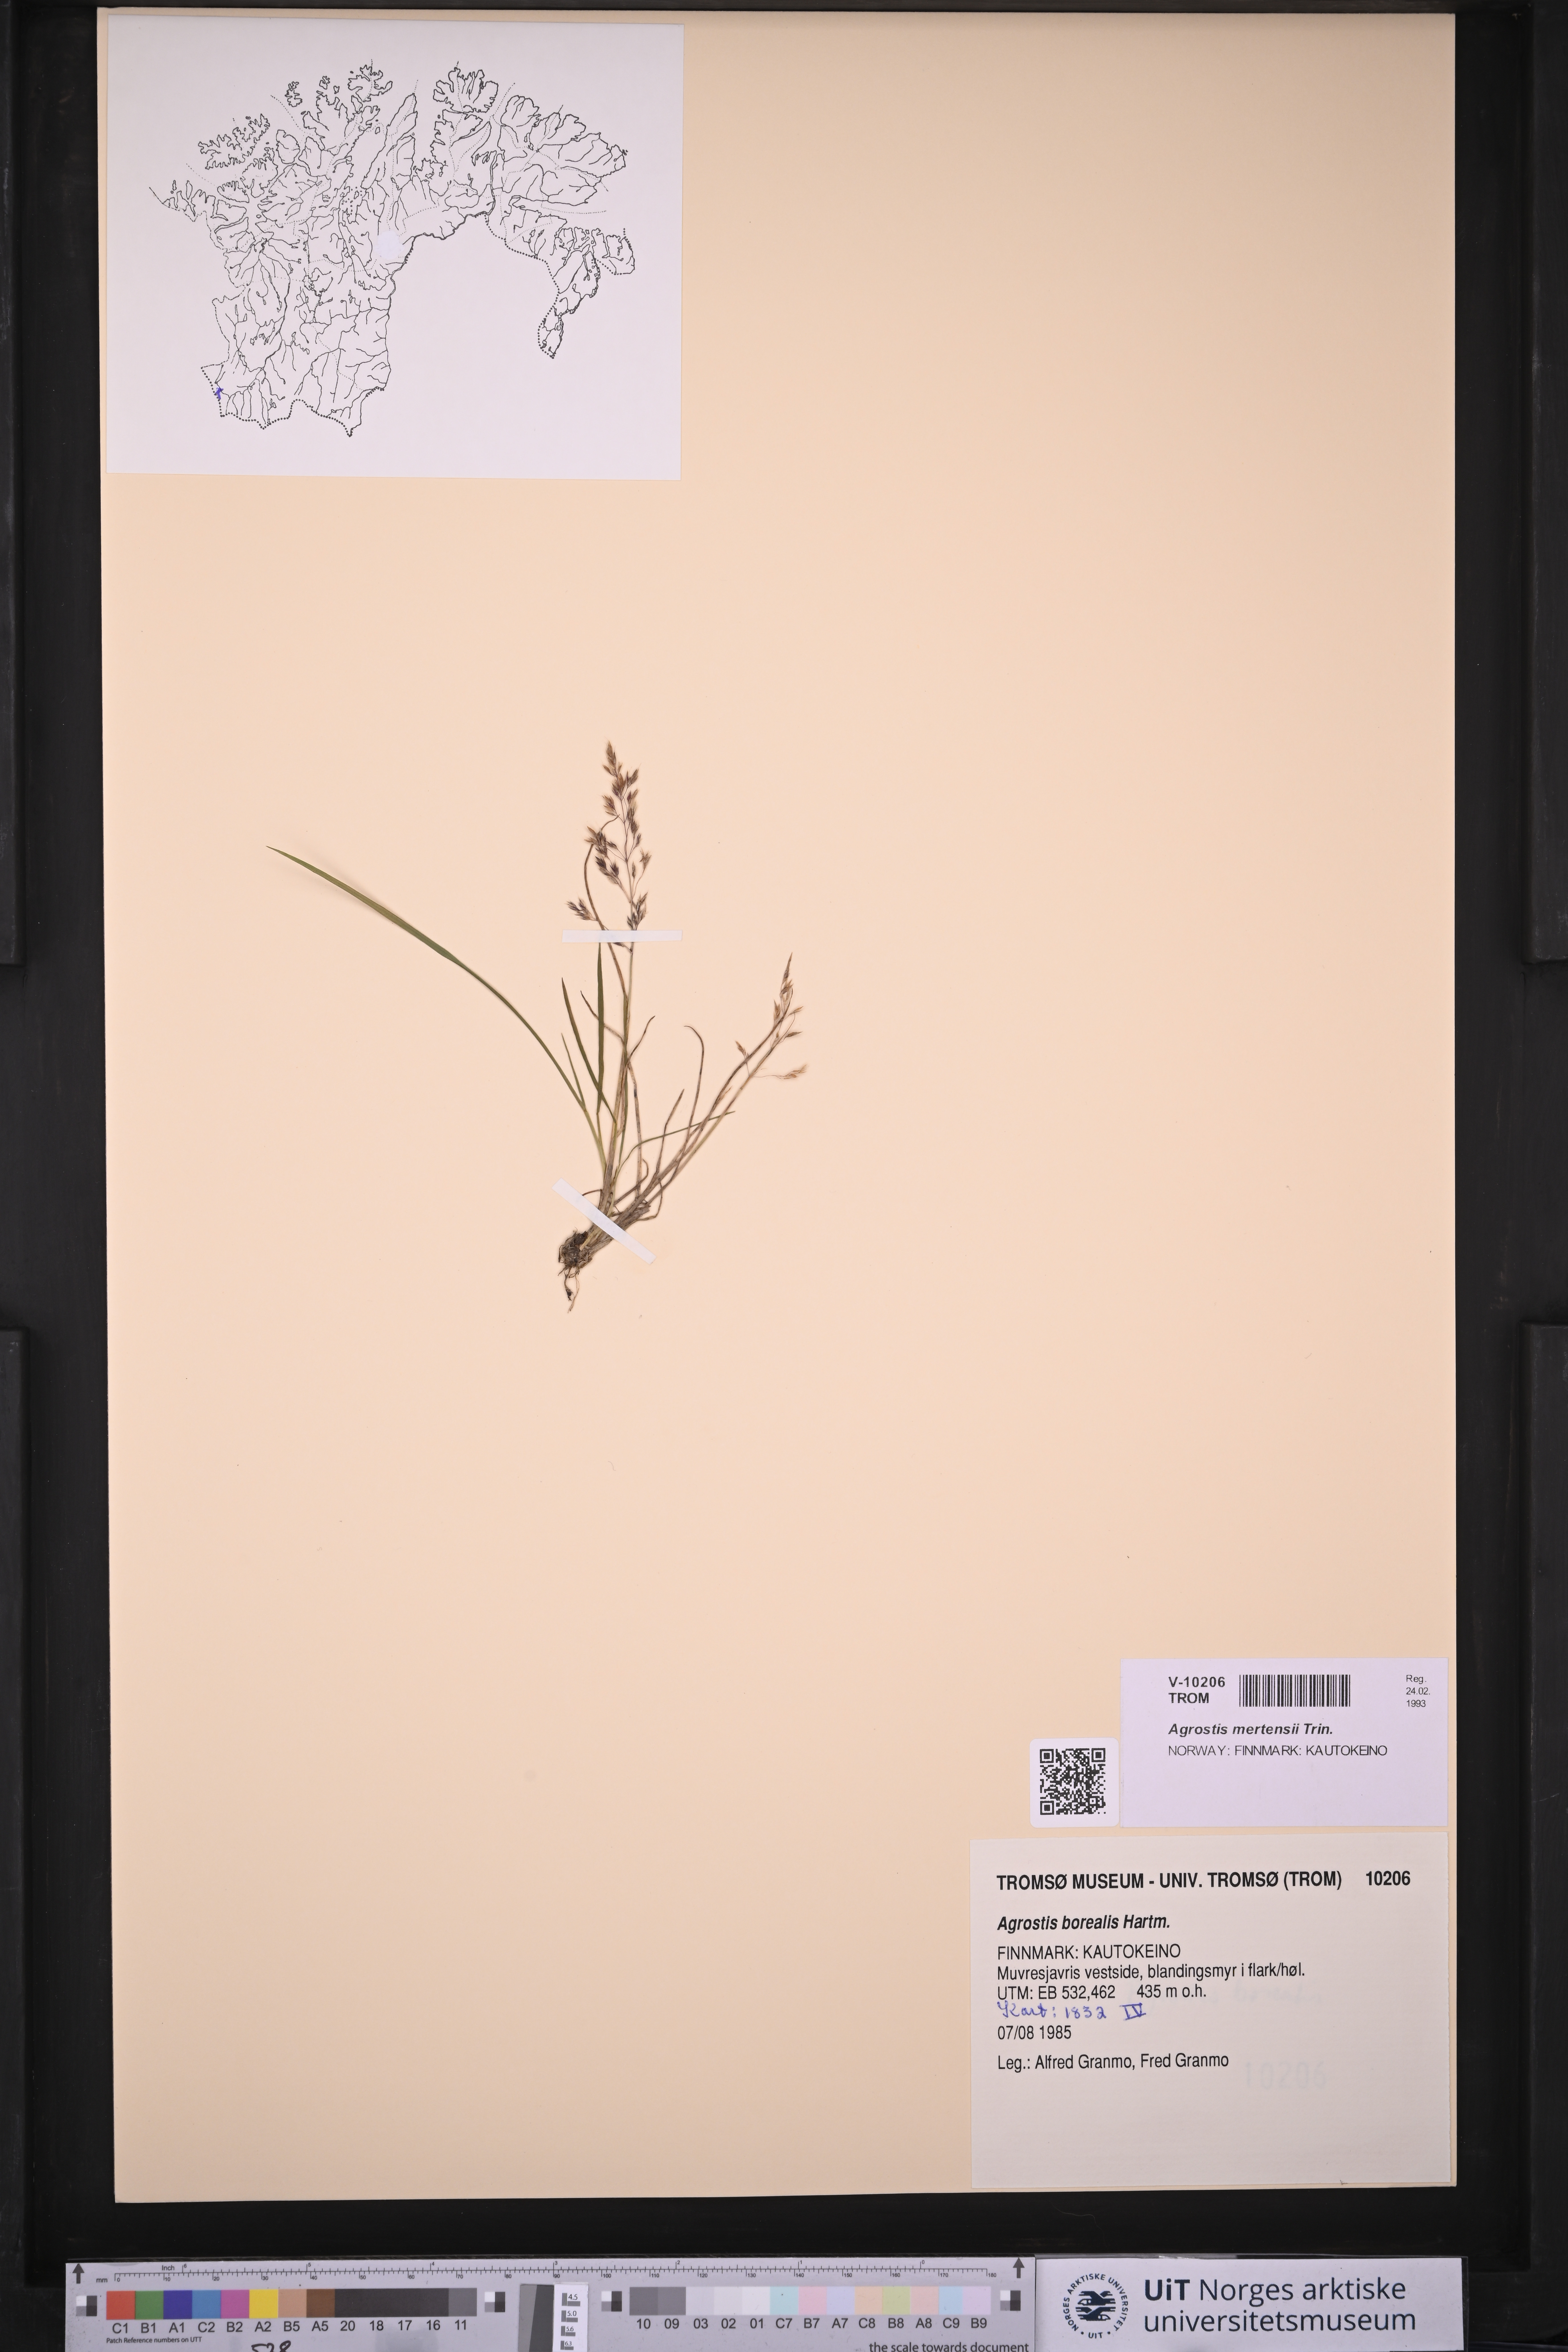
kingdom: Plantae
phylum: Tracheophyta
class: Liliopsida
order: Poales
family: Poaceae
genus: Agrostis
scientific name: Agrostis mertensii
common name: Northern bent
